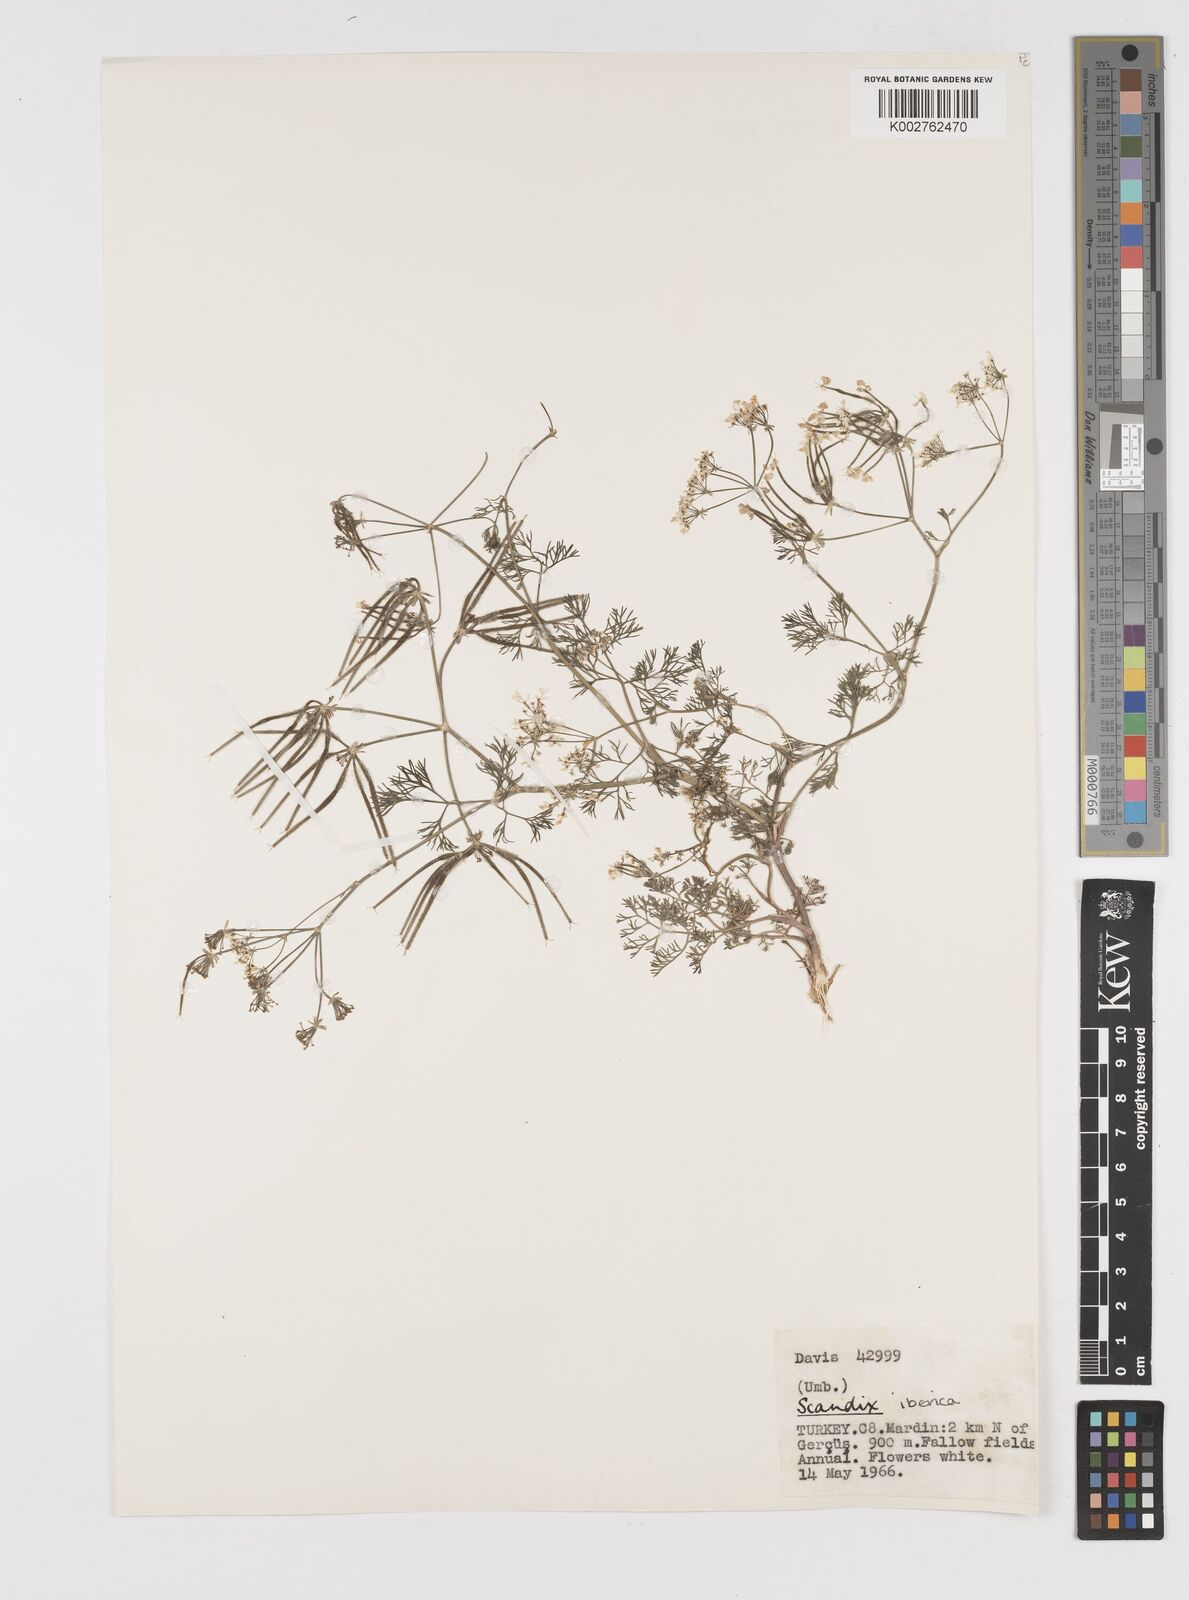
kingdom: Plantae
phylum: Tracheophyta
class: Magnoliopsida
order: Apiales
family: Apiaceae
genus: Scandix
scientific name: Scandix iberica
